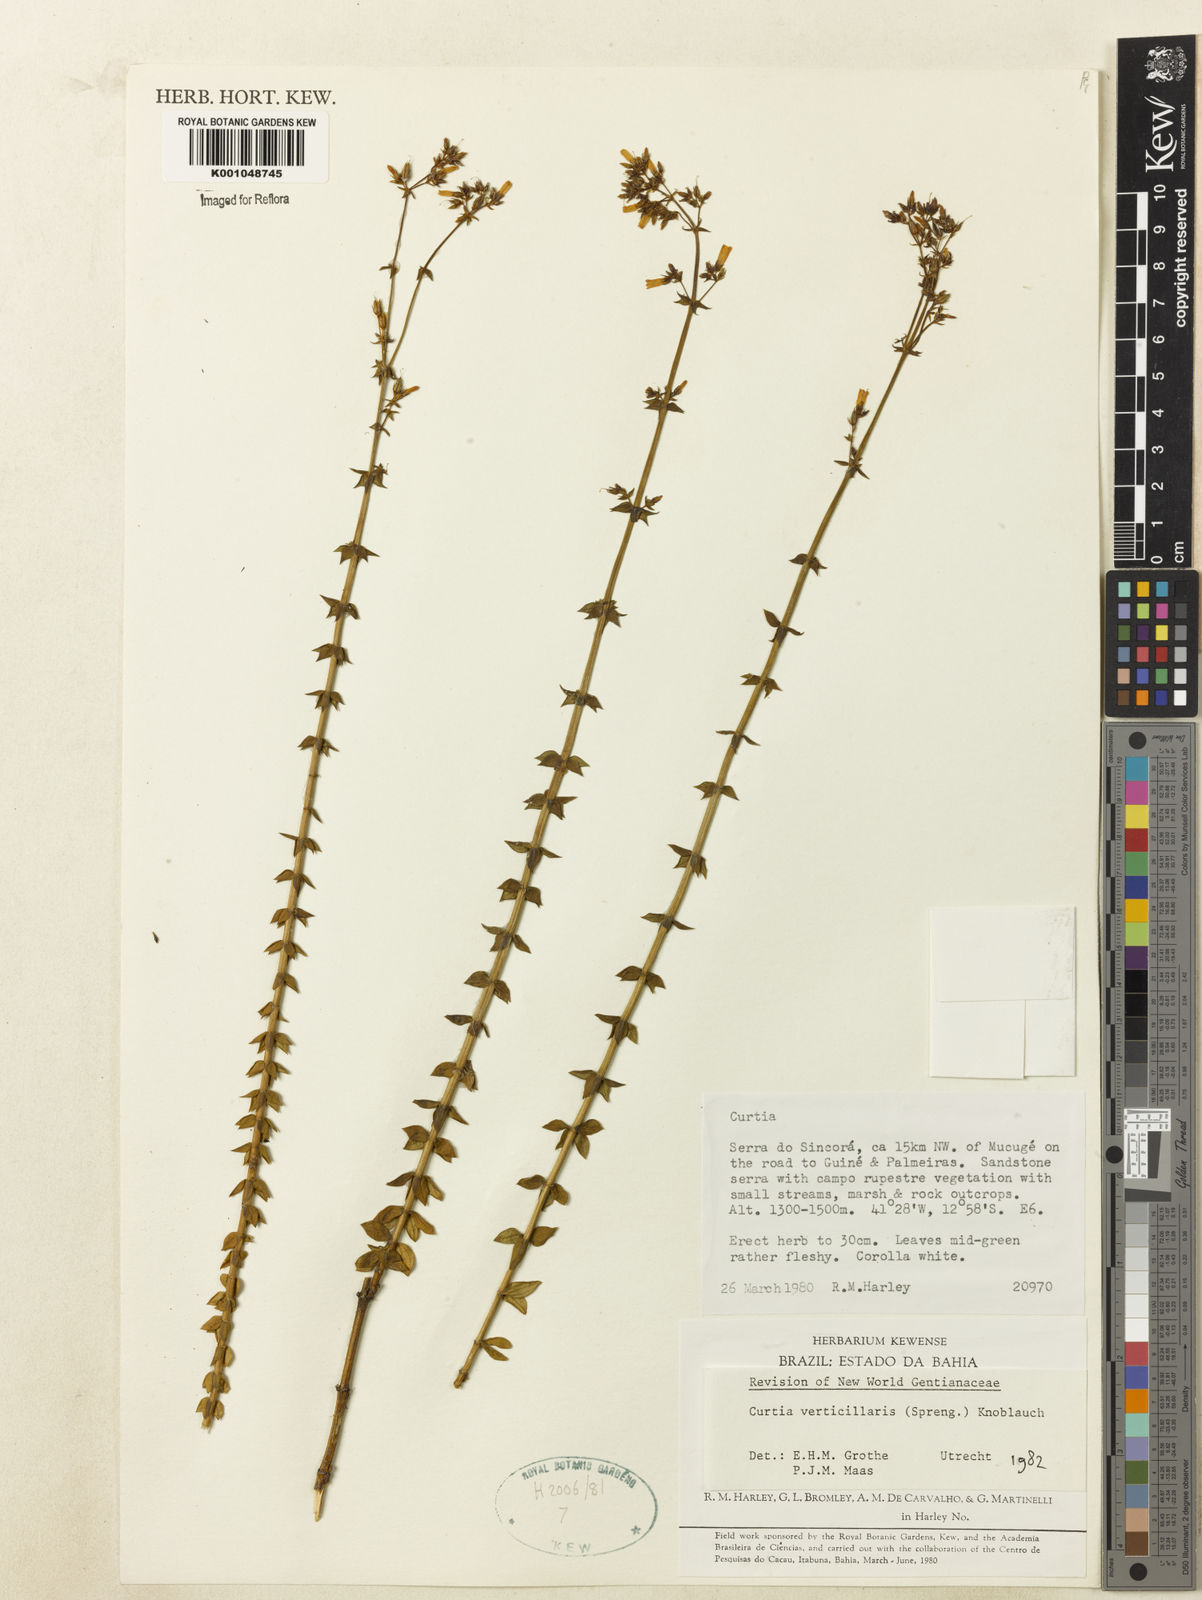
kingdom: Plantae
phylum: Tracheophyta
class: Magnoliopsida
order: Gentianales
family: Gentianaceae
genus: Curtia
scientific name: Curtia verticillaris
